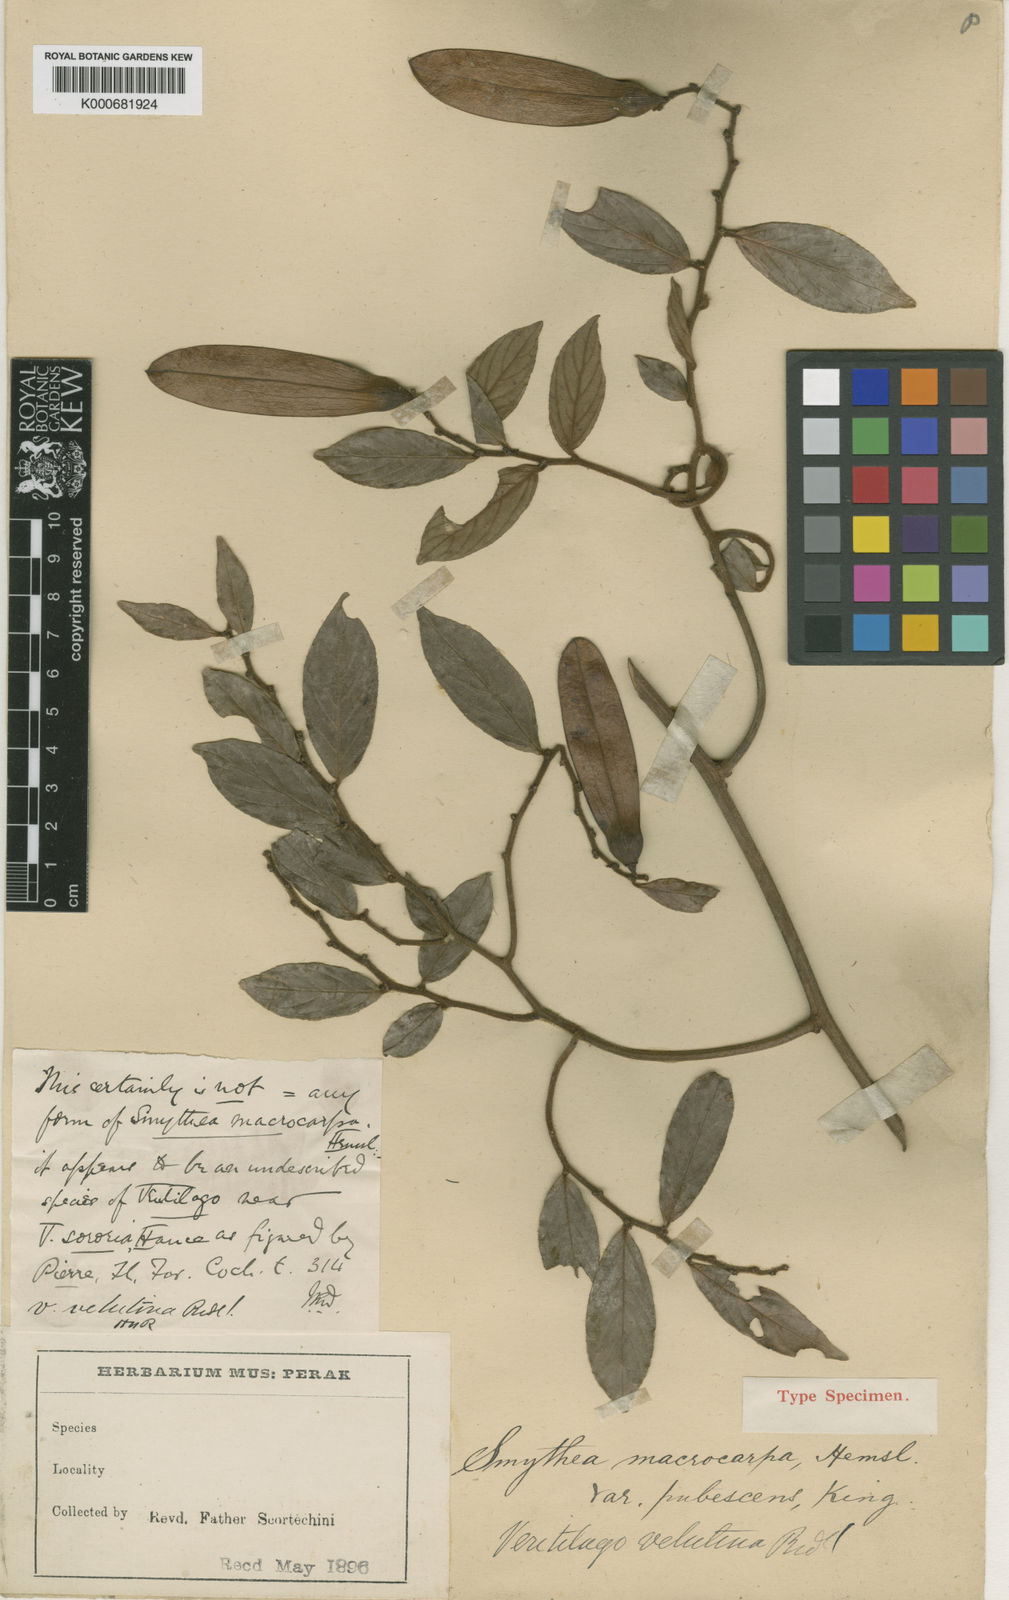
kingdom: Plantae
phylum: Tracheophyta
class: Magnoliopsida
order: Rosales
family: Rhamnaceae
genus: Smythea
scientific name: Smythea velutina
